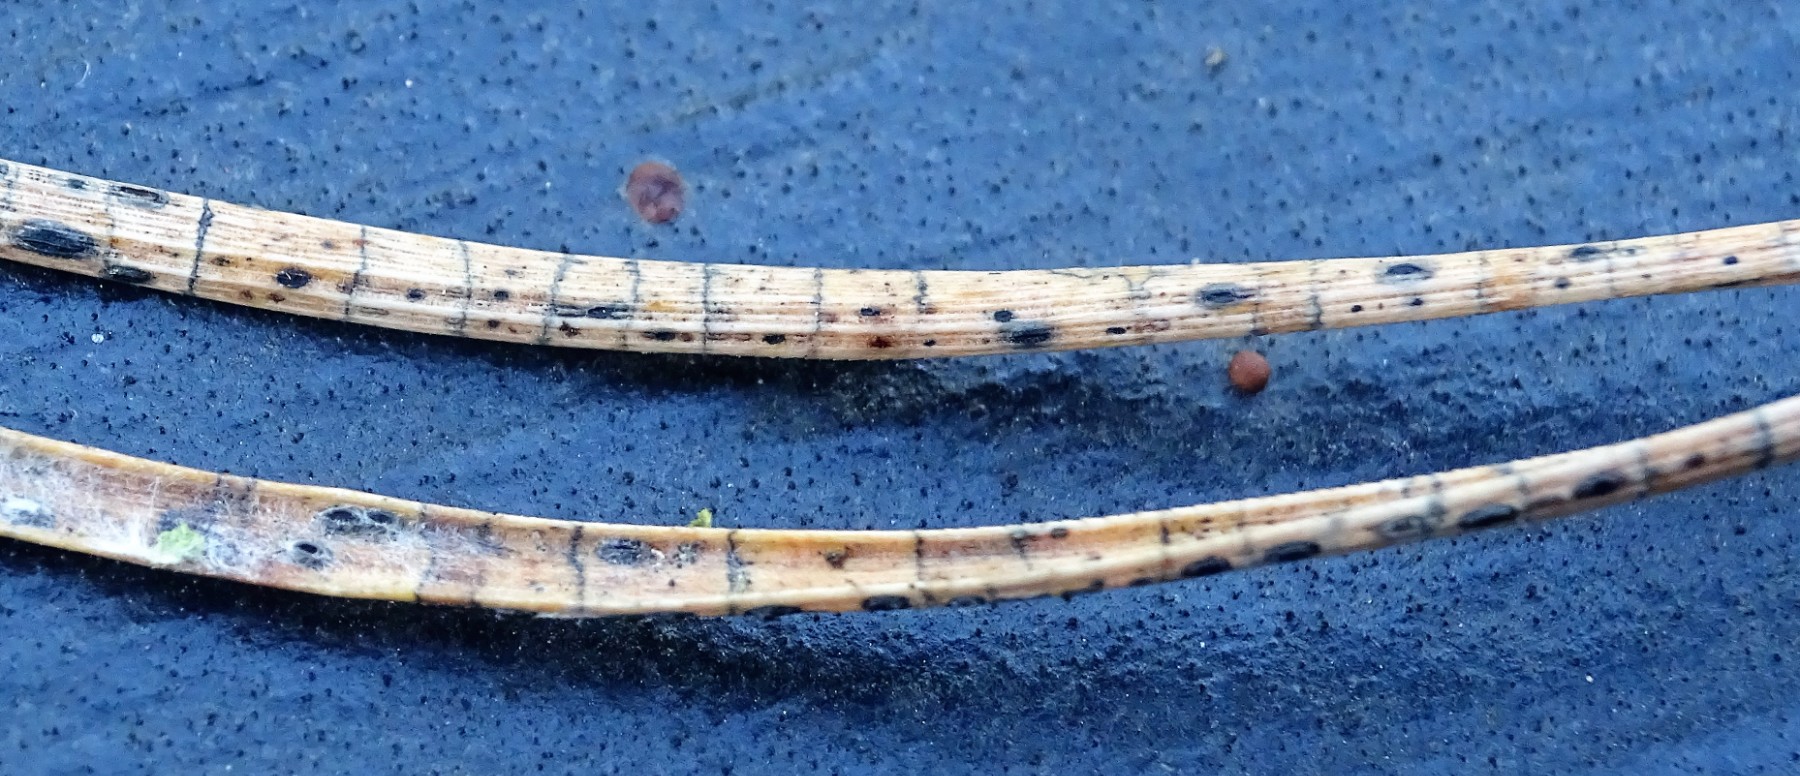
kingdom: Fungi
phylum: Ascomycota
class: Leotiomycetes
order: Rhytismatales
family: Rhytismataceae
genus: Lophodermium
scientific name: Lophodermium pinastri
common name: fyrre-fureplet
